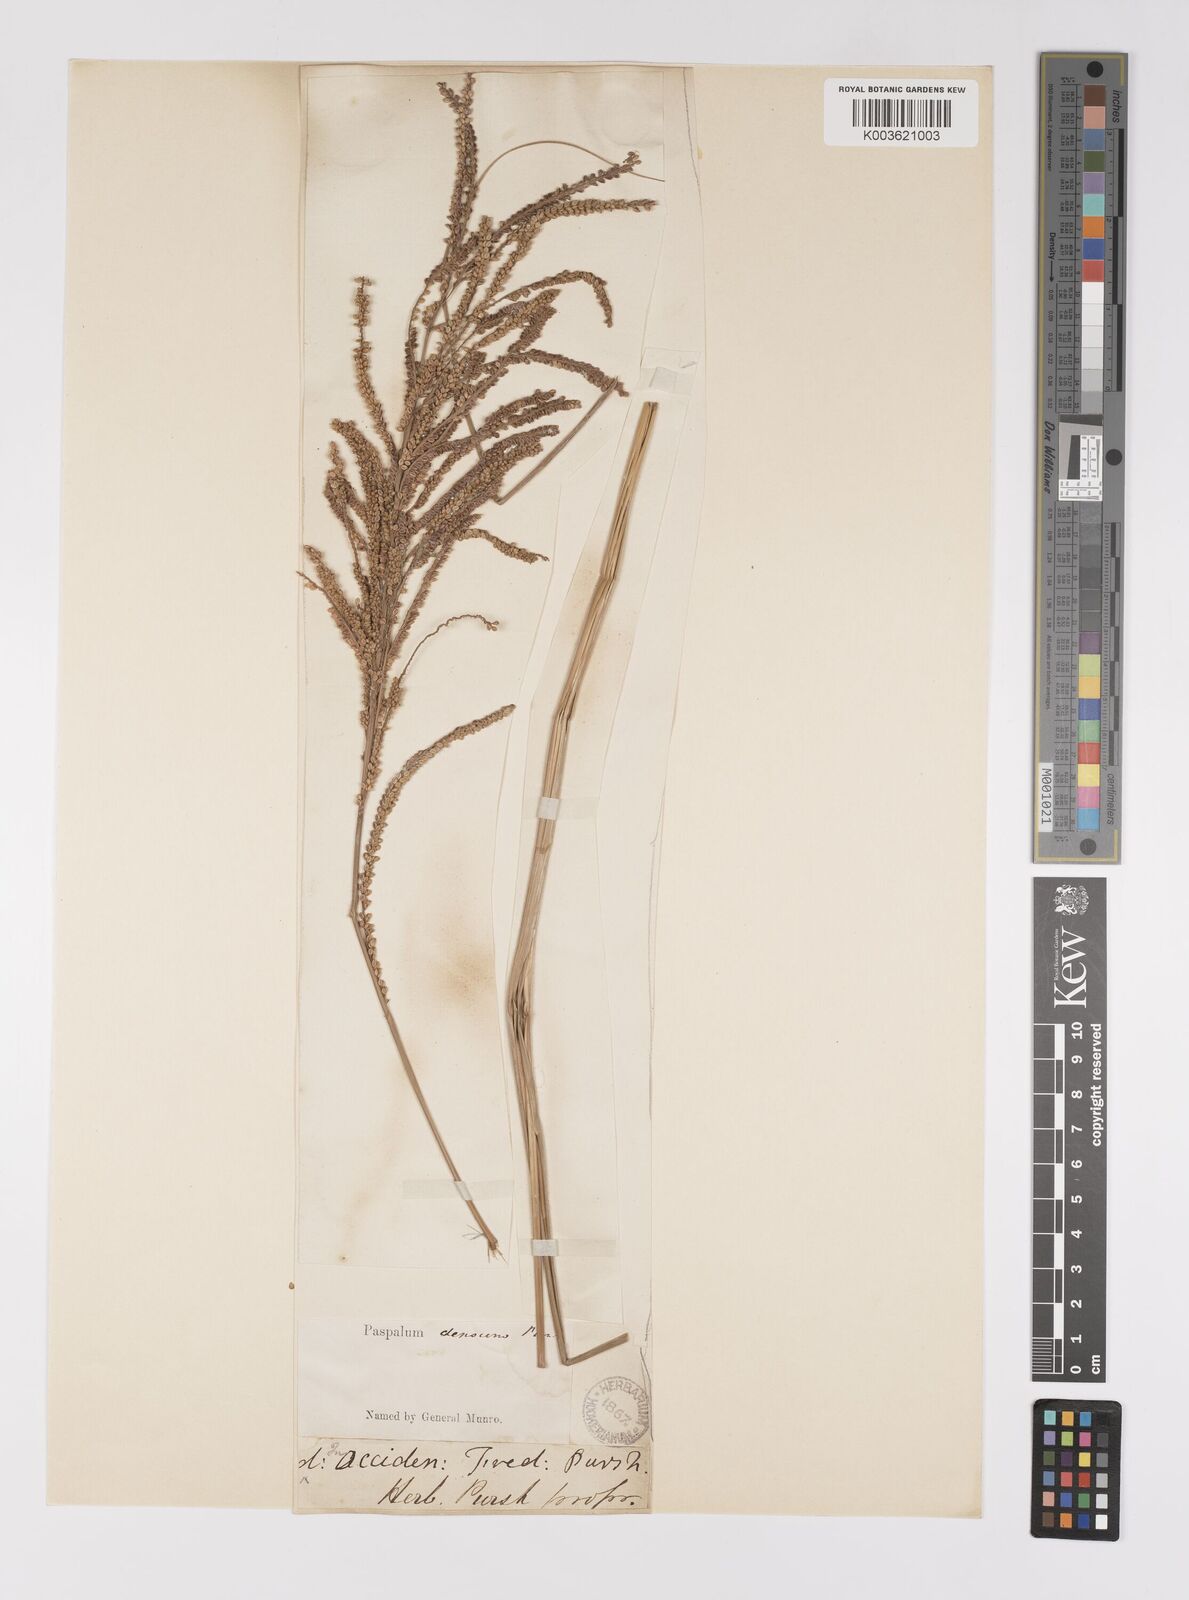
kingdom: Plantae
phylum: Tracheophyta
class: Liliopsida
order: Poales
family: Poaceae
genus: Paspalum
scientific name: Paspalum
